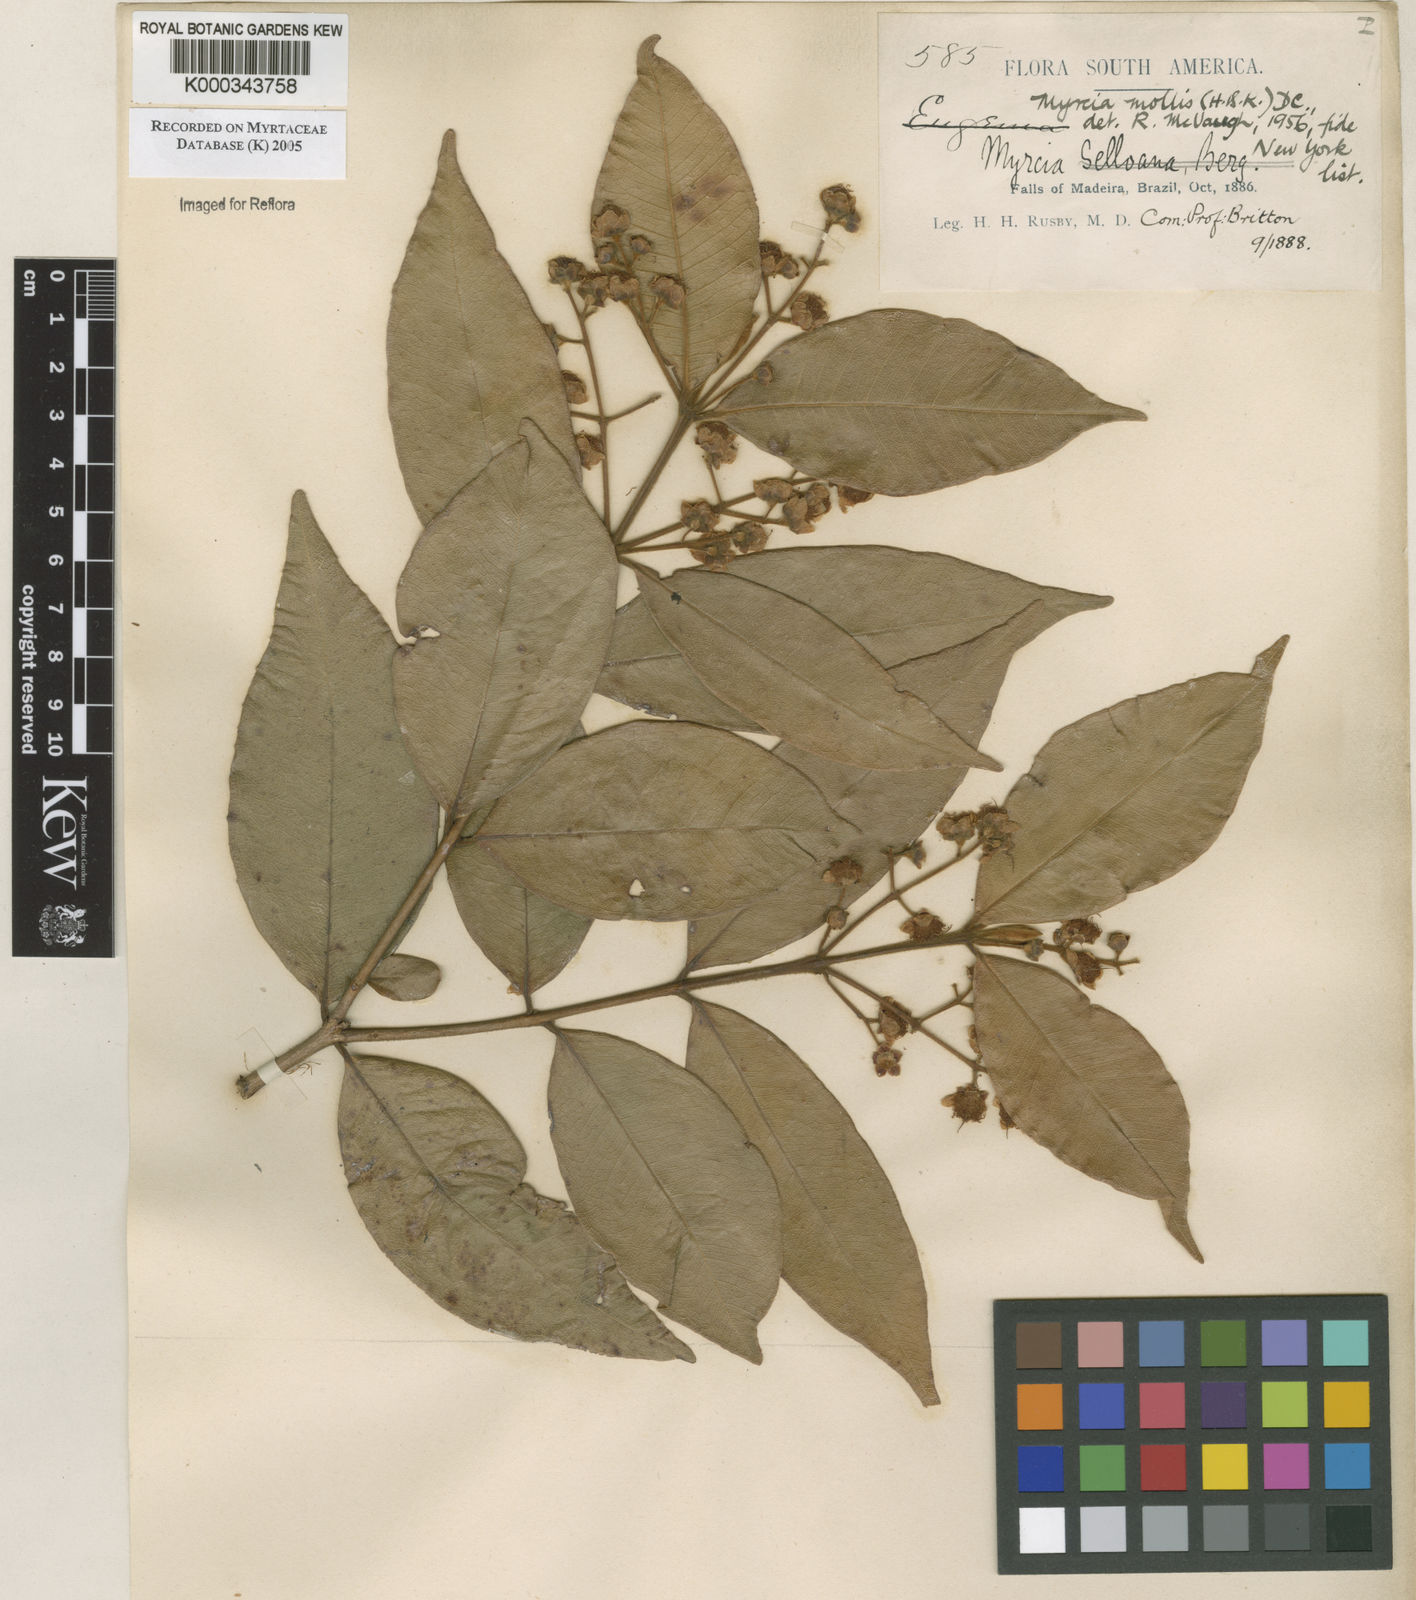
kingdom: Plantae
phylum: Tracheophyta
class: Magnoliopsida
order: Myrtales
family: Myrtaceae
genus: Myrcia
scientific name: Myrcia mollis
